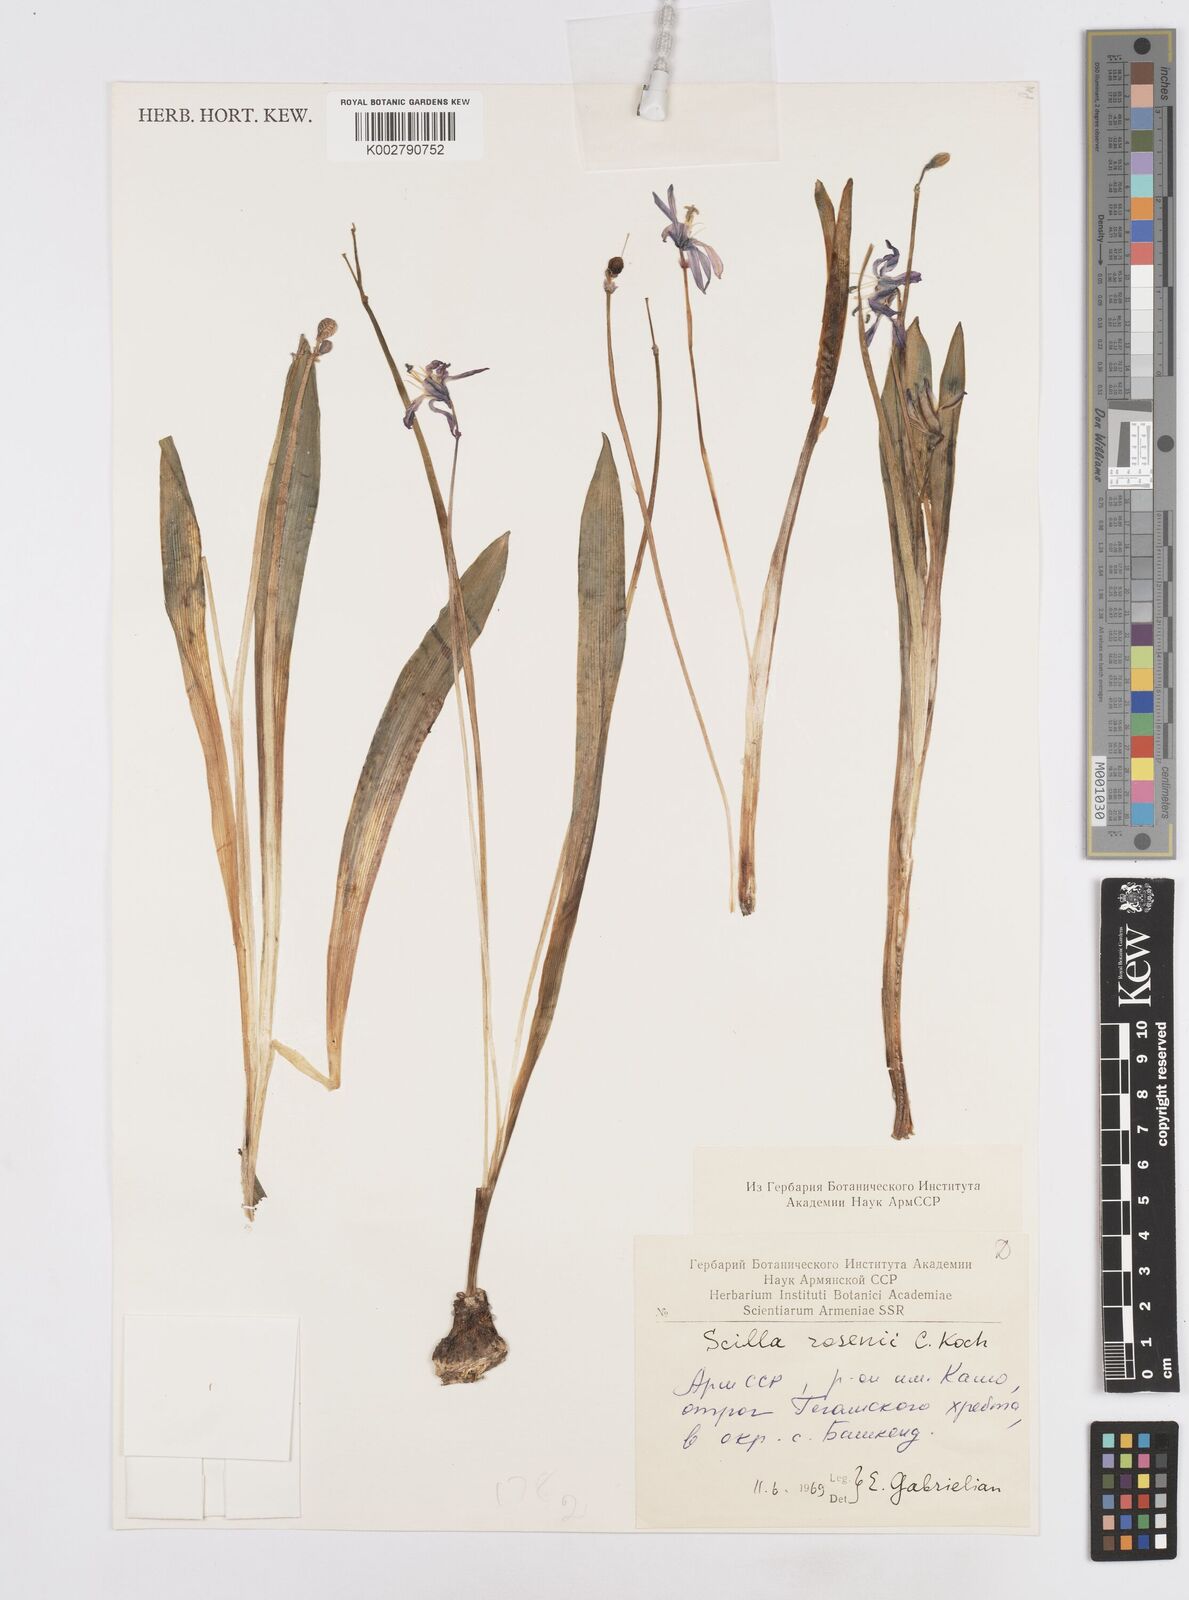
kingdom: Plantae
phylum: Tracheophyta
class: Liliopsida
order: Asparagales
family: Asparagaceae
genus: Scilla
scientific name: Scilla rosenii
